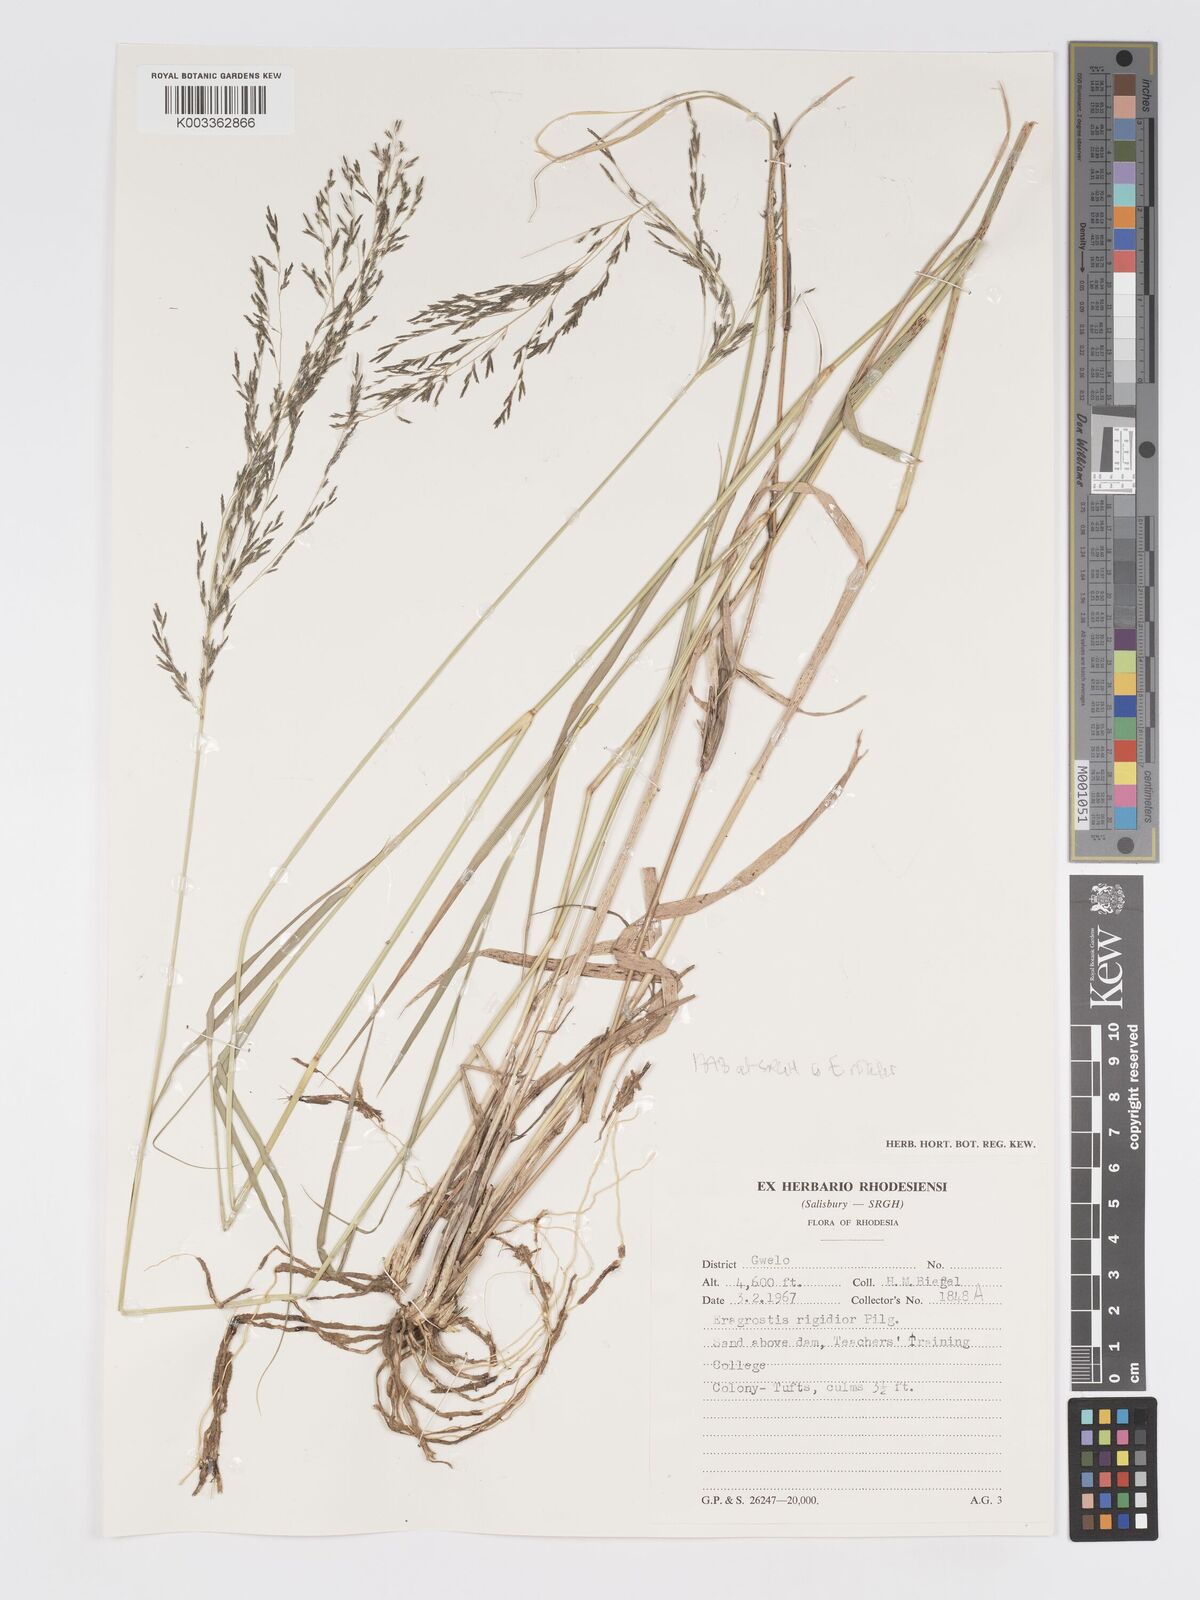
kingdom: Plantae
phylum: Tracheophyta
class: Liliopsida
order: Poales
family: Poaceae
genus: Eragrostis
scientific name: Eragrostis cylindriflora
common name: Cylinderflower lovegrass
